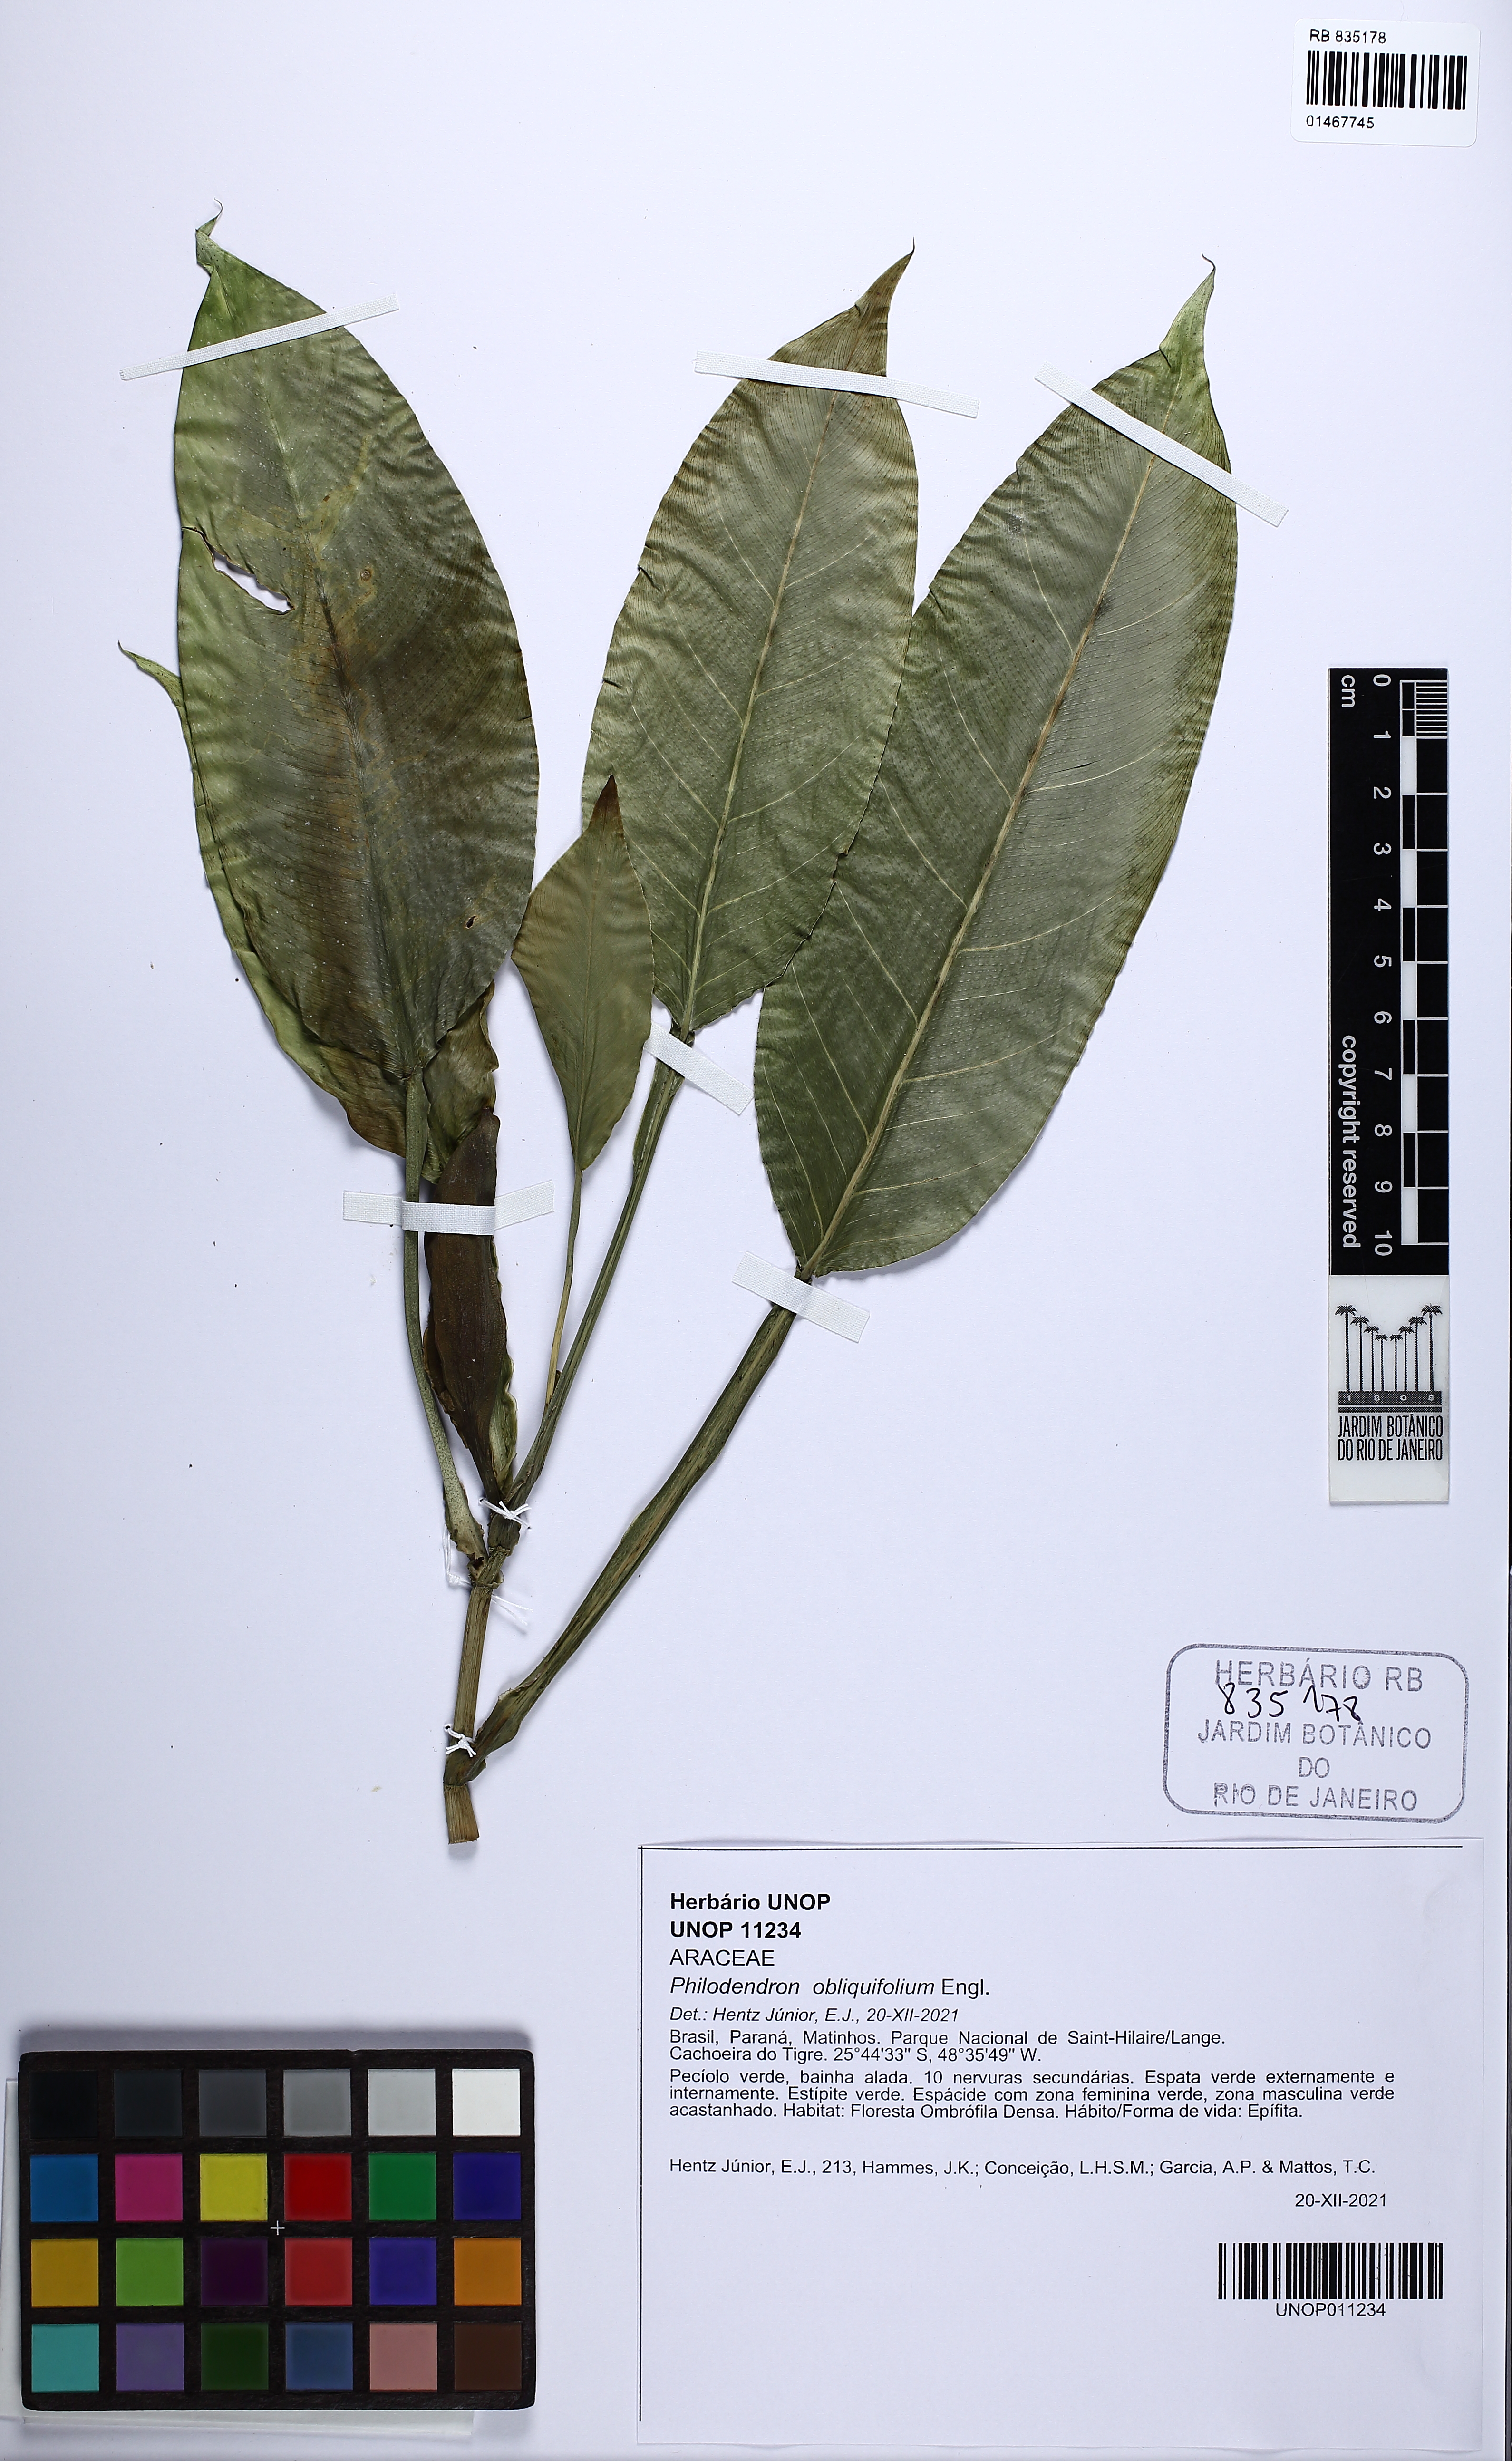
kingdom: Plantae
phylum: Tracheophyta
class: Liliopsida
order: Alismatales
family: Araceae
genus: Philodendron
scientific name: Philodendron obliquifolium
